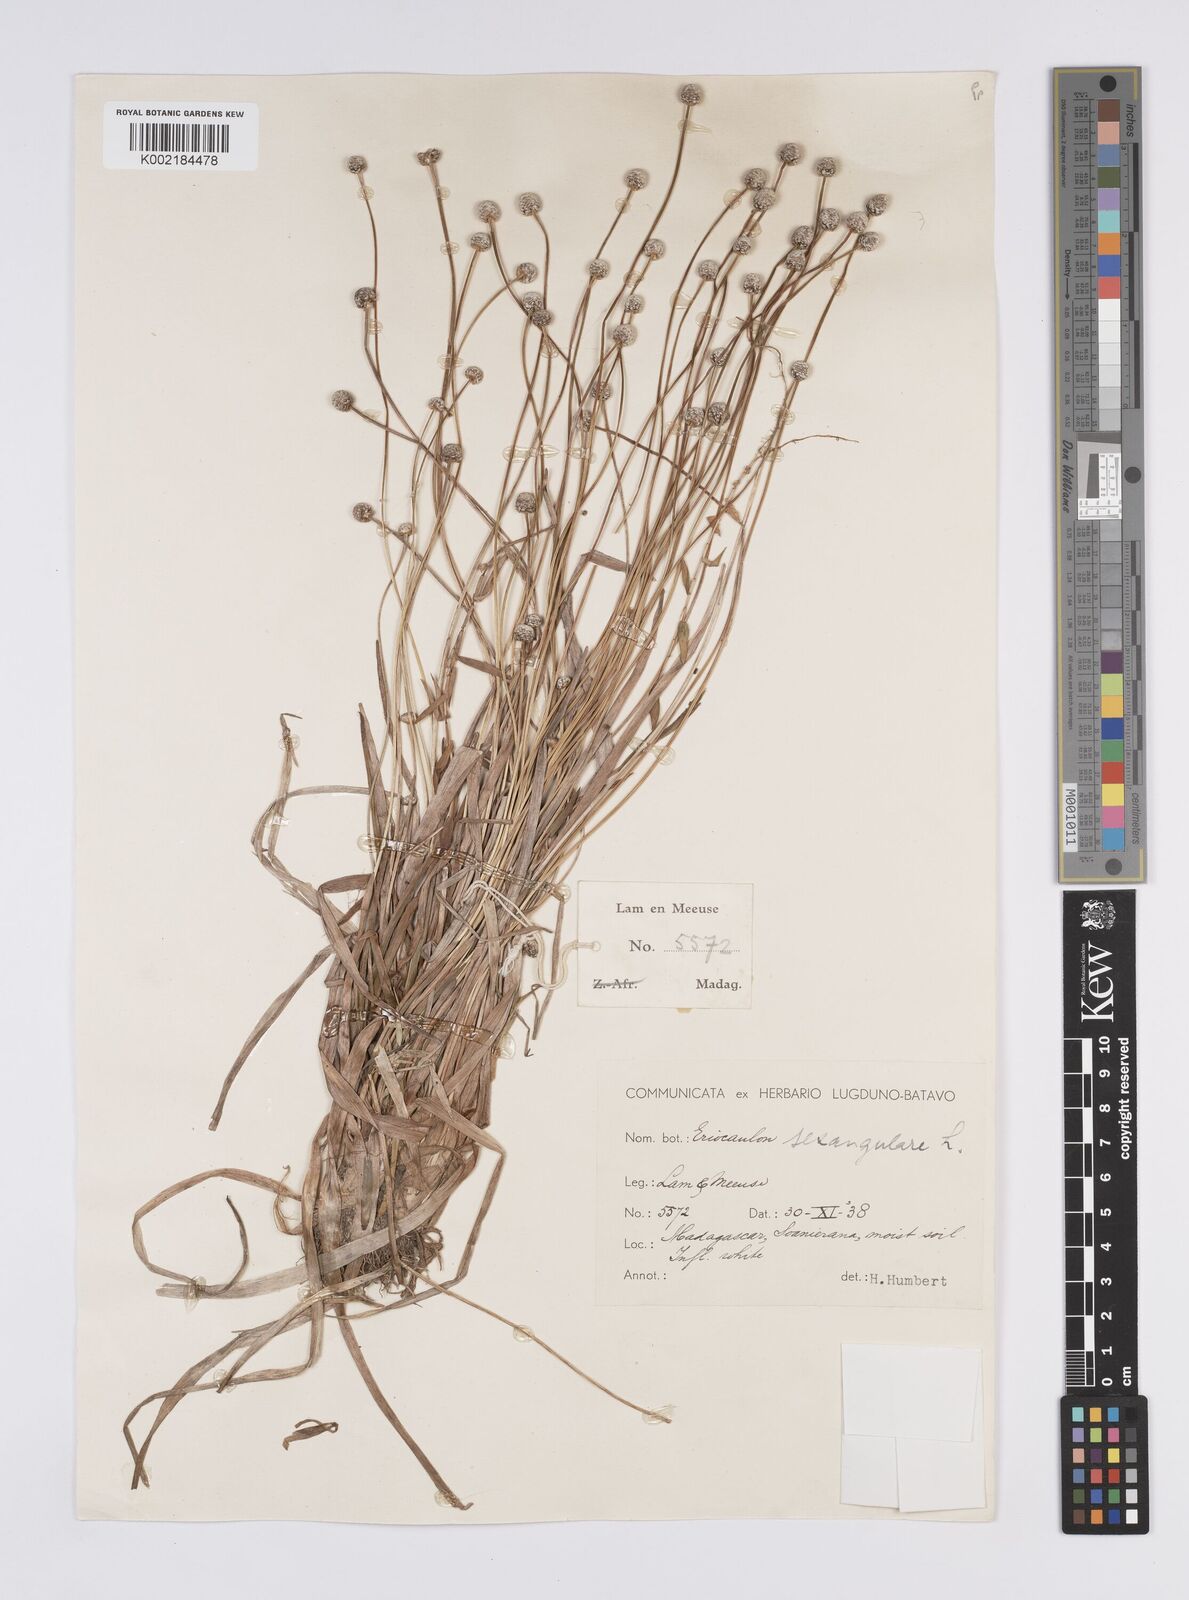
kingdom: Plantae
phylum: Tracheophyta
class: Liliopsida
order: Poales
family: Eriocaulaceae
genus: Eriocaulon
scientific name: Eriocaulon willdenovianum
